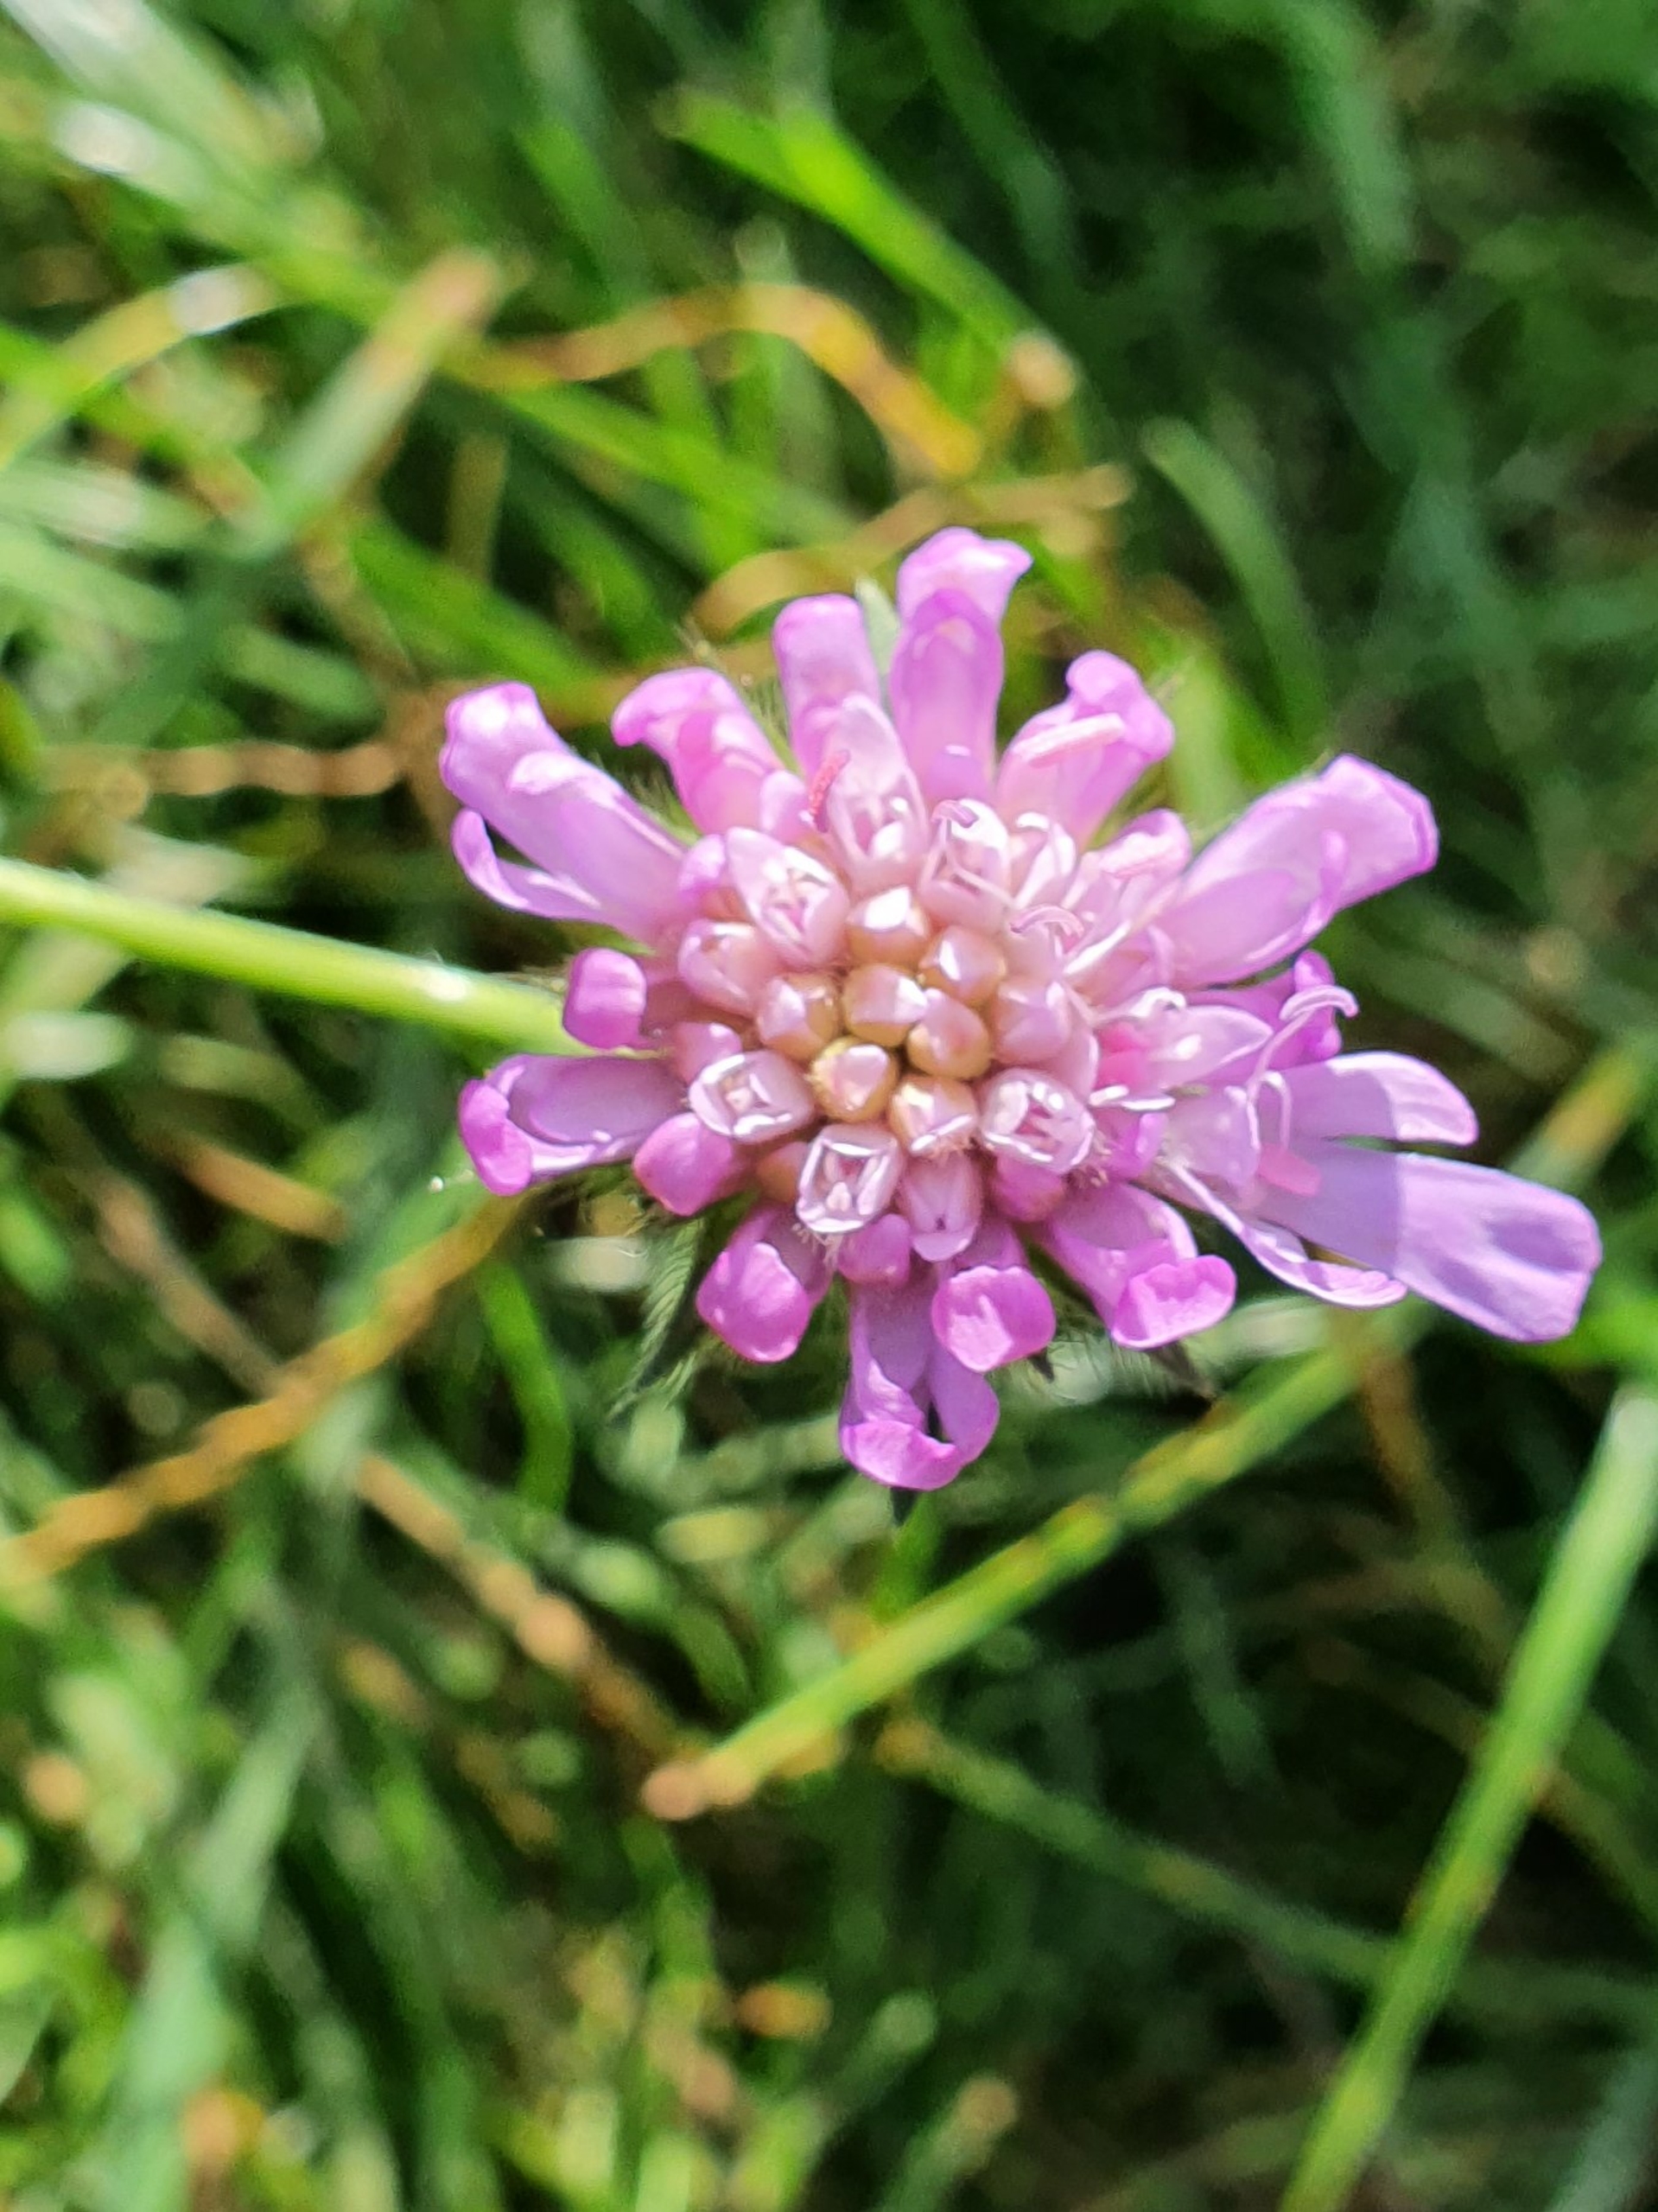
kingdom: Plantae
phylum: Tracheophyta
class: Magnoliopsida
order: Dipsacales
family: Caprifoliaceae
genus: Knautia
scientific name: Knautia arvensis
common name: Blåhat
